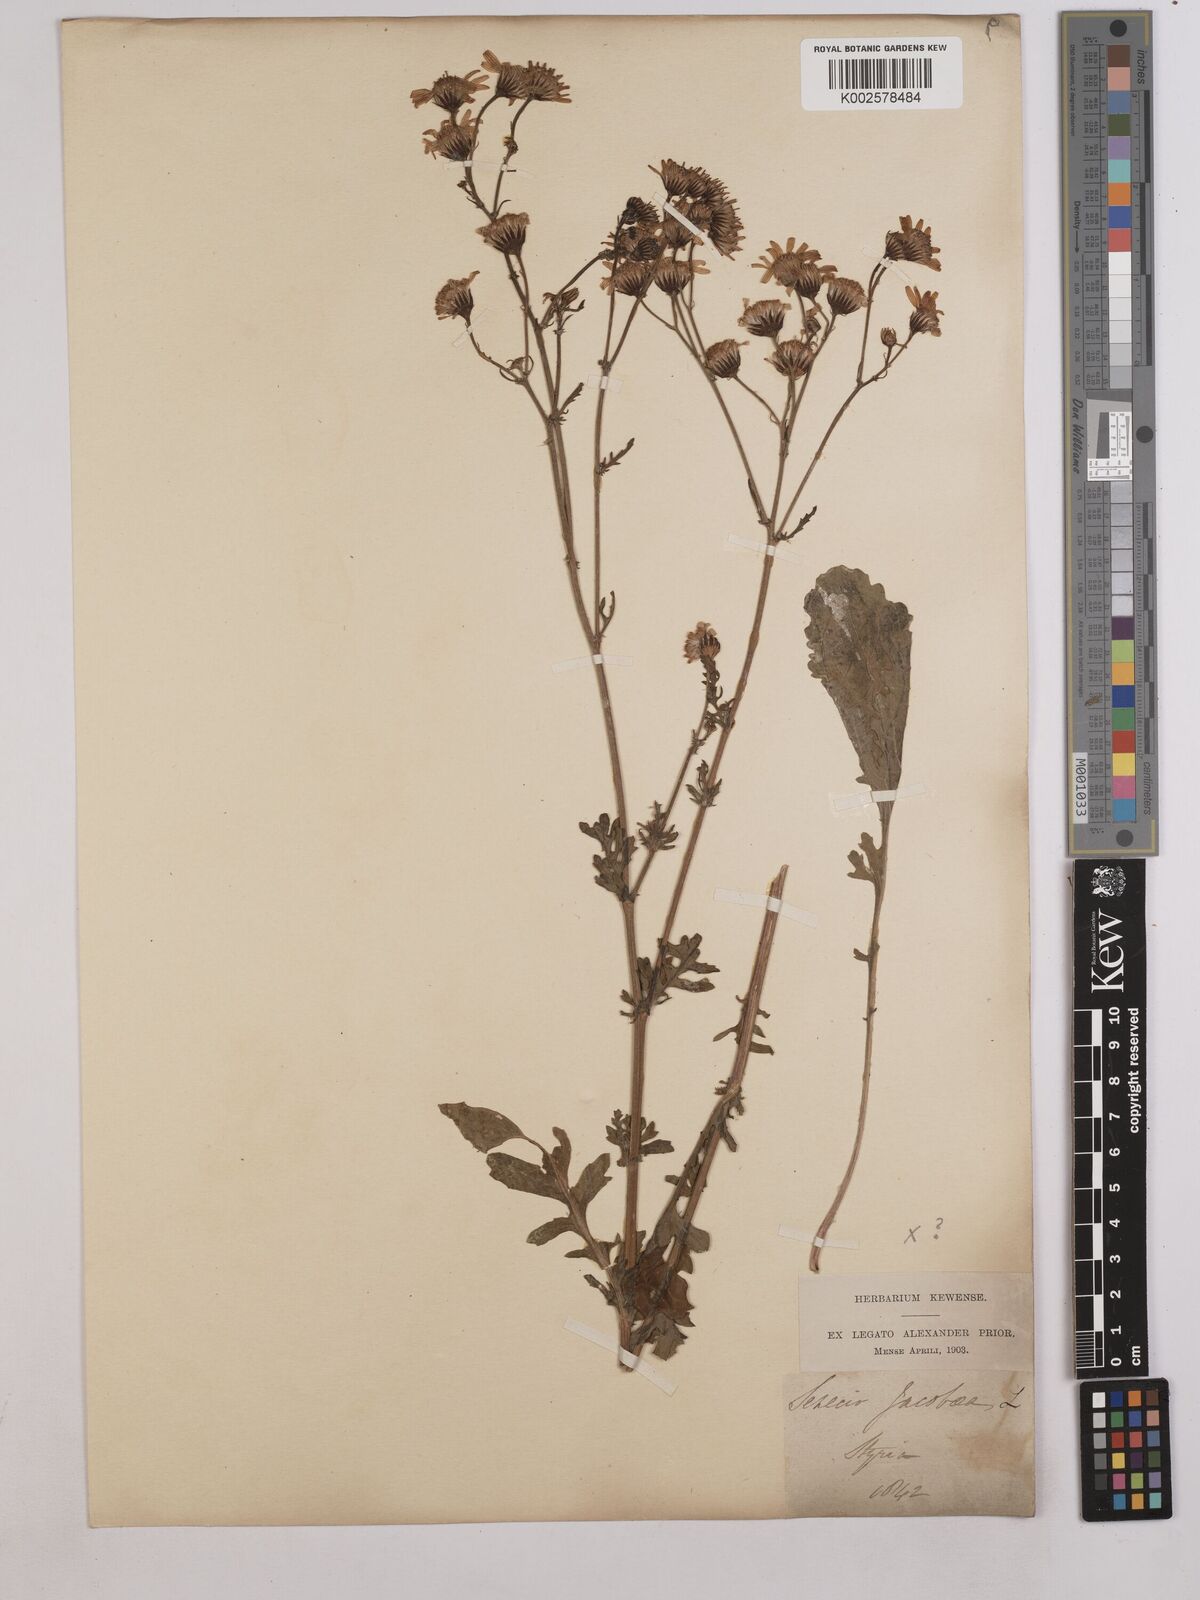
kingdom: Plantae
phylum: Tracheophyta
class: Magnoliopsida
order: Asterales
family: Asteraceae
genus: Jacobaea
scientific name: Jacobaea vulgaris
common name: Stinking willie
